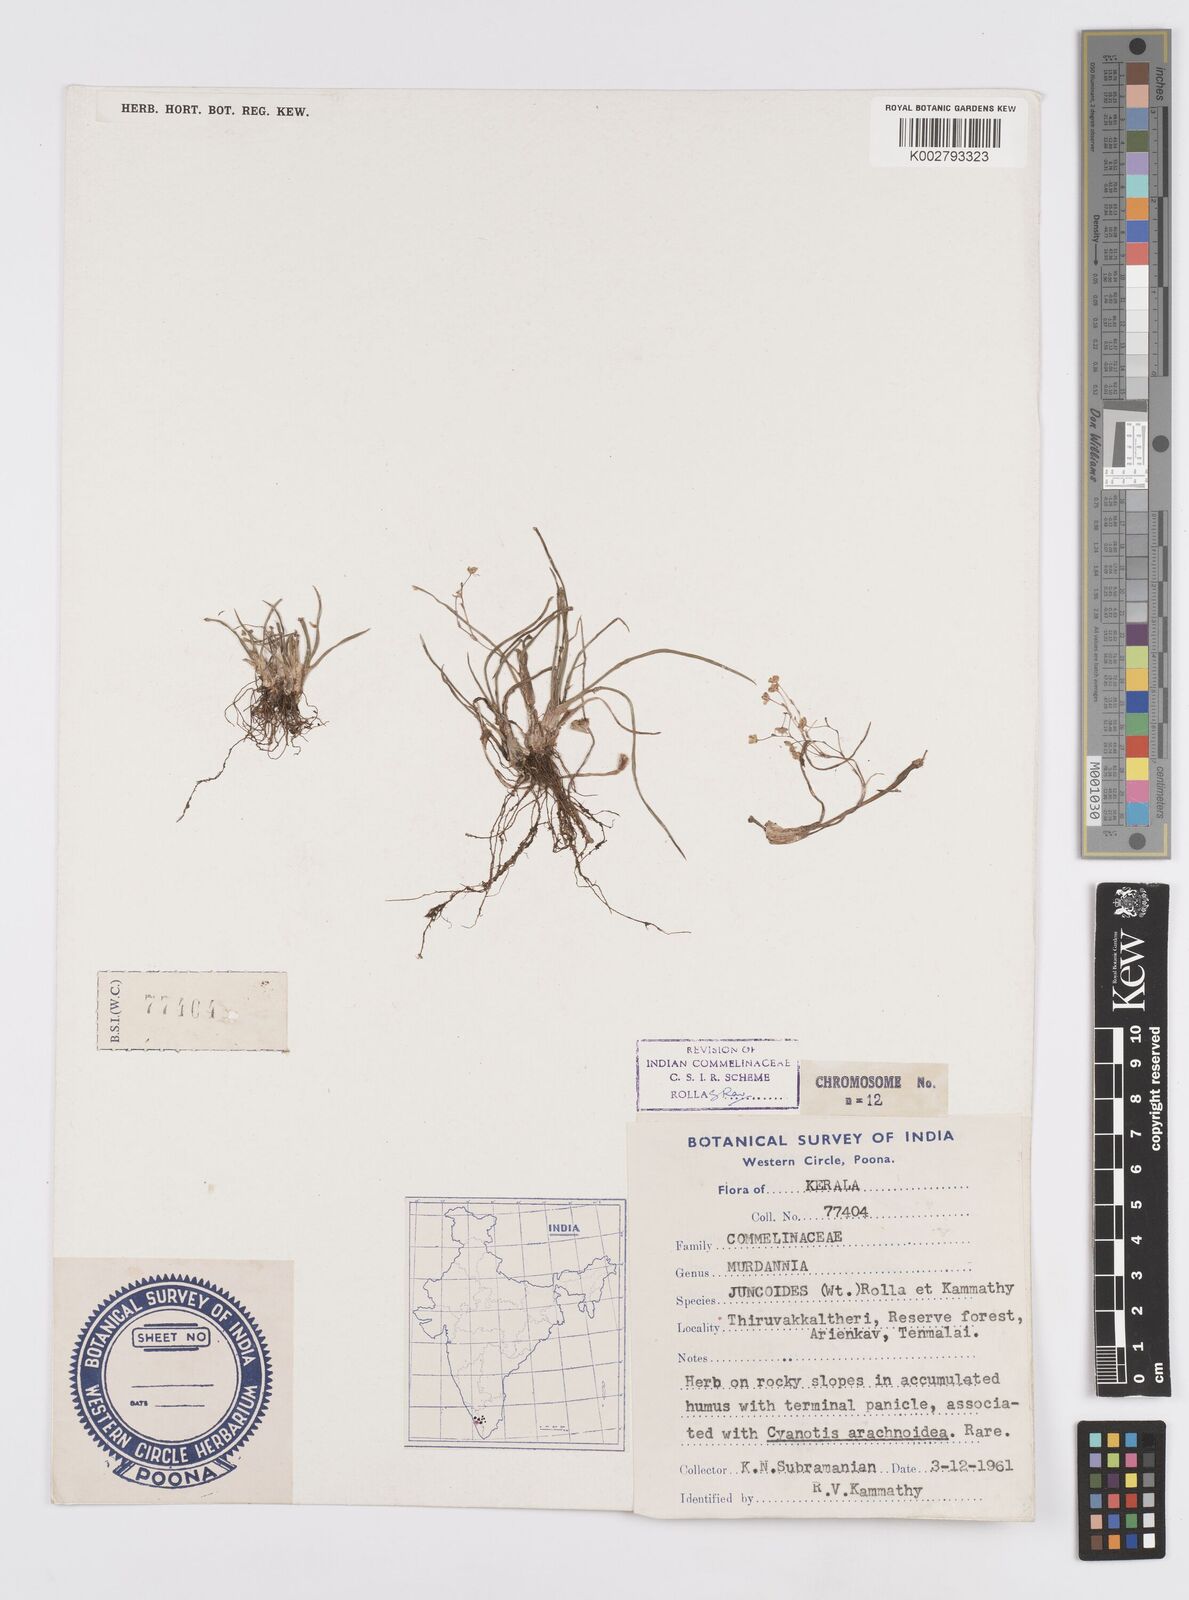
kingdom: Plantae
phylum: Tracheophyta
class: Liliopsida
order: Commelinales
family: Commelinaceae
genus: Murdannia
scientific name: Murdannia semiteres
